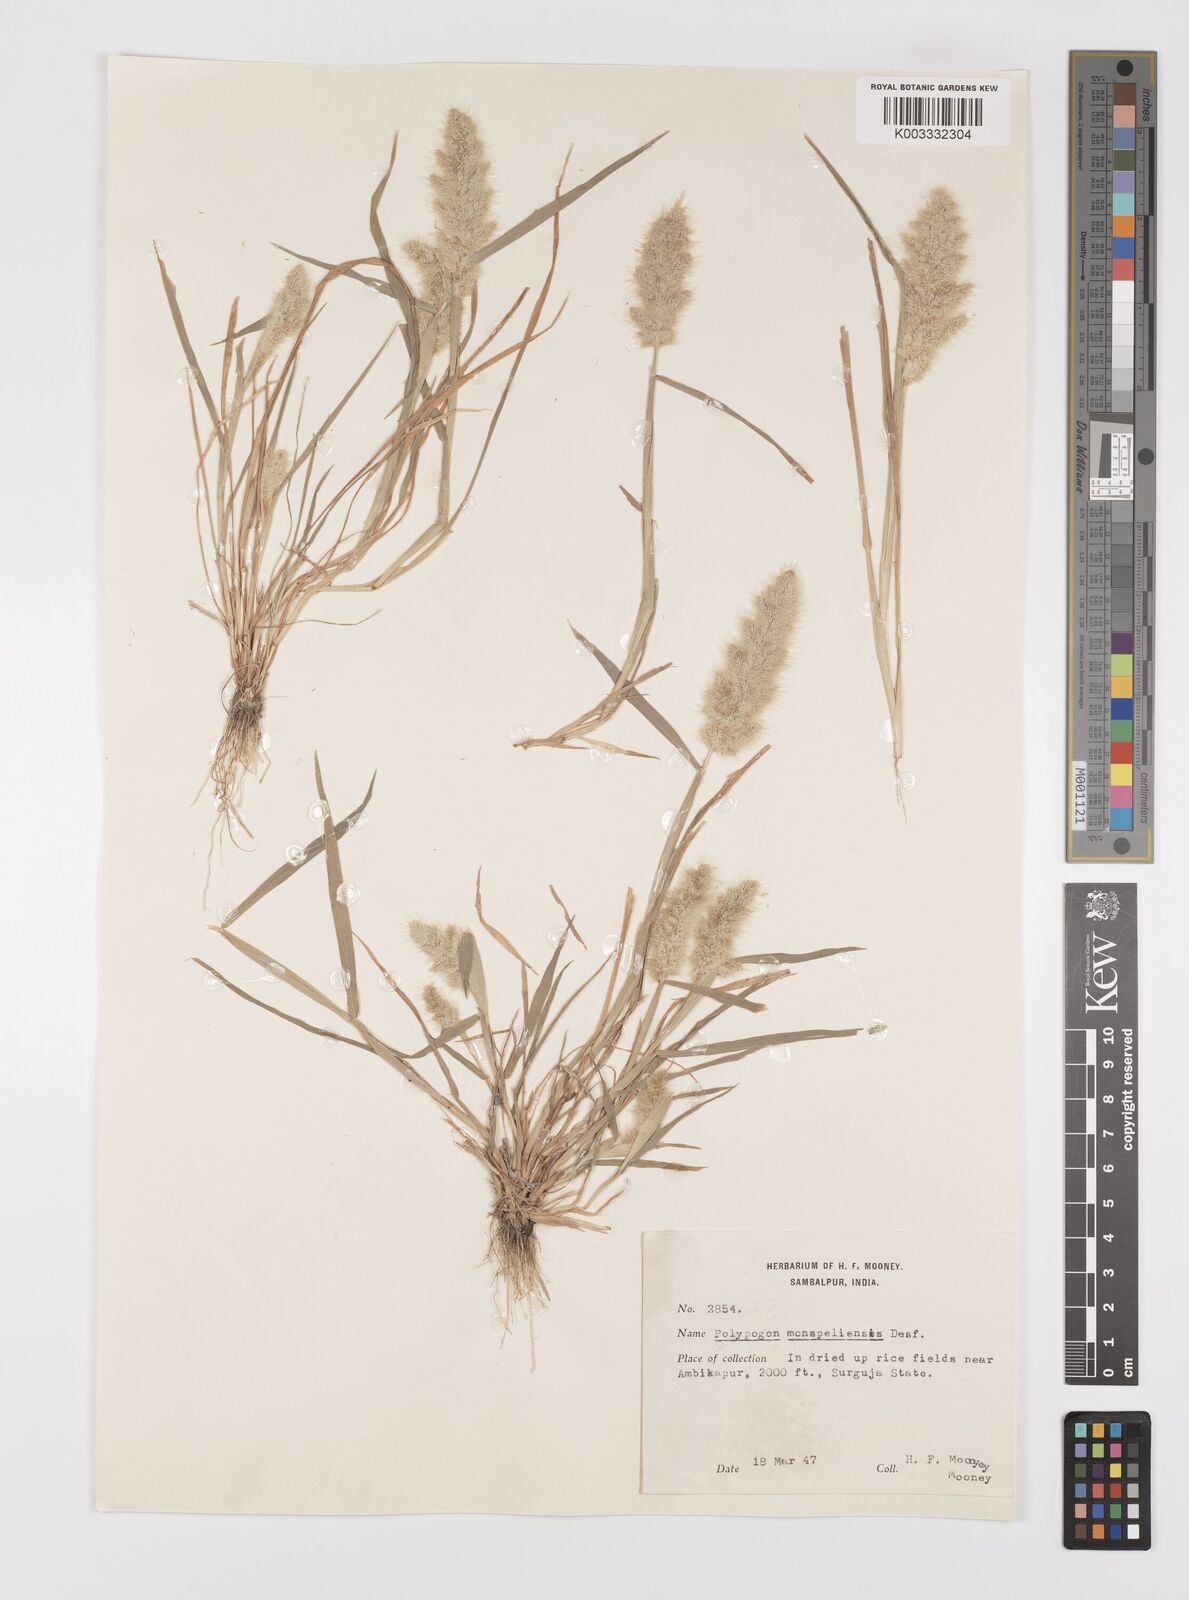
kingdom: Plantae
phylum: Tracheophyta
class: Liliopsida
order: Poales
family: Poaceae
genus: Polypogon
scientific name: Polypogon monspeliensis
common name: Annual rabbitsfoot grass
